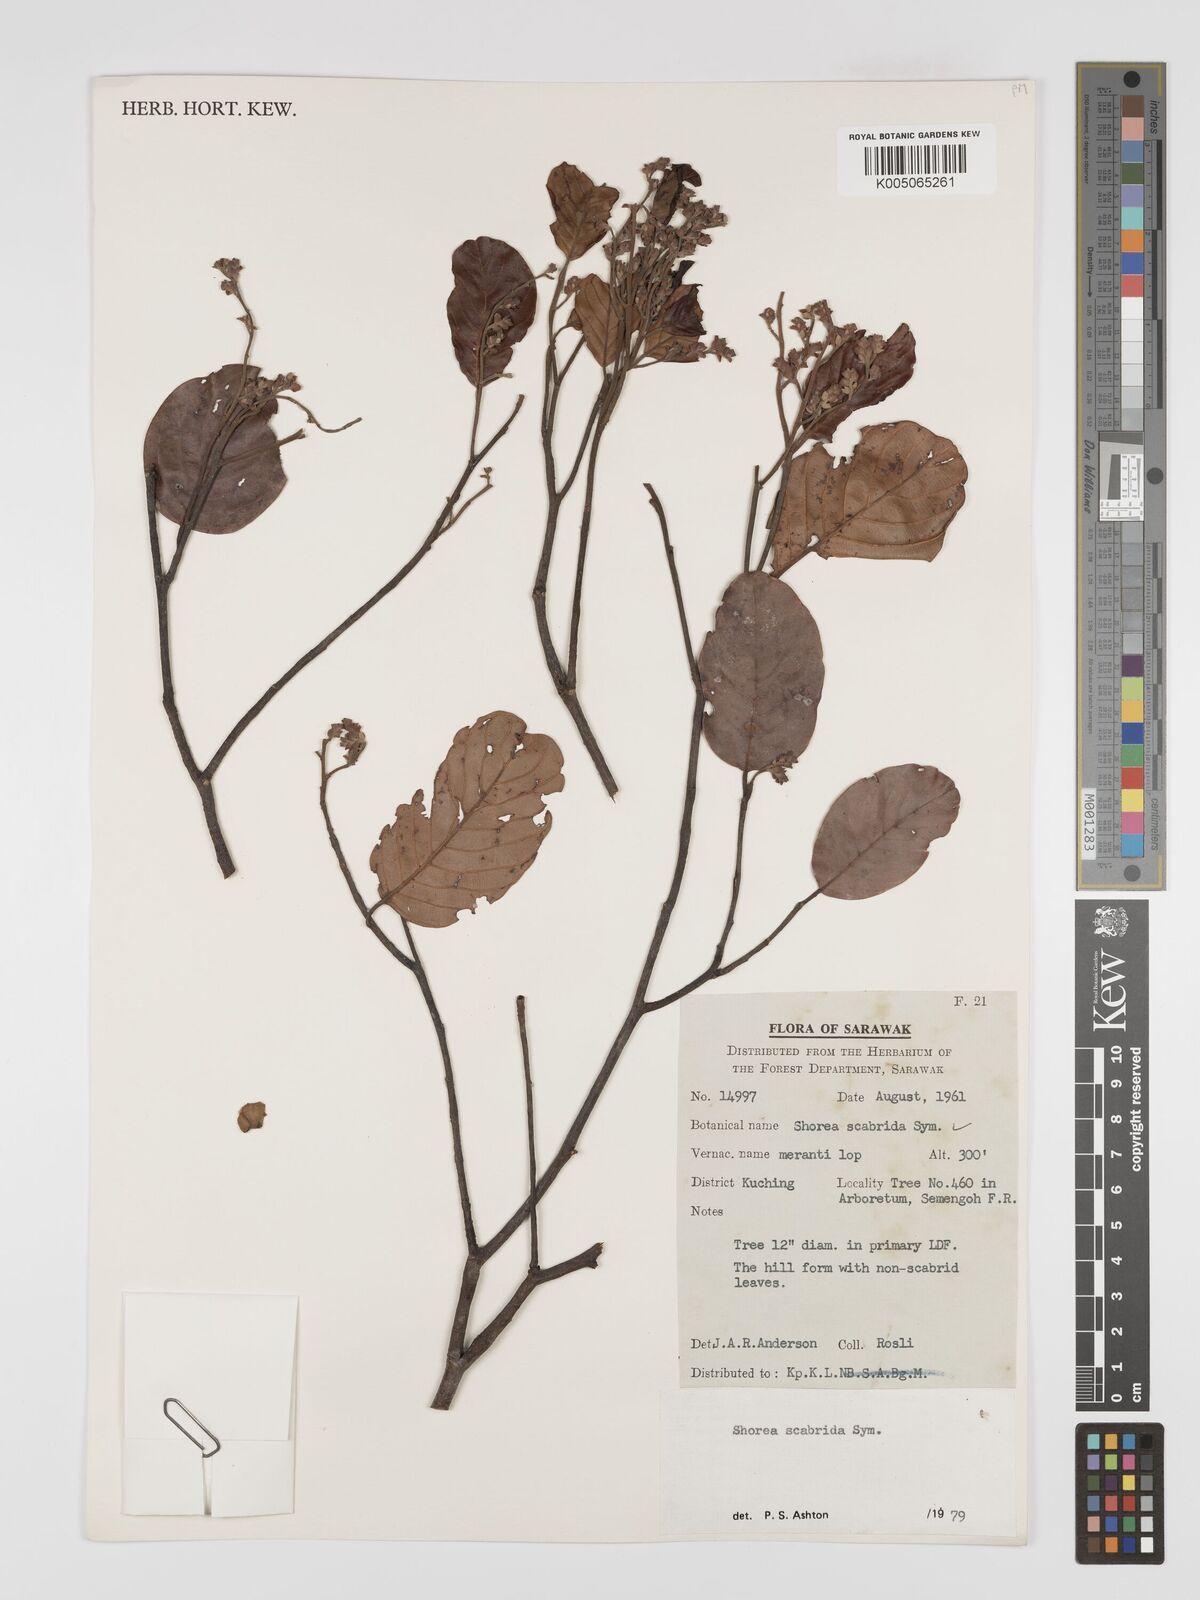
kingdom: Plantae
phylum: Tracheophyta
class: Magnoliopsida
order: Malvales
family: Dipterocarpaceae
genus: Shorea
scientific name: Shorea scabrida
